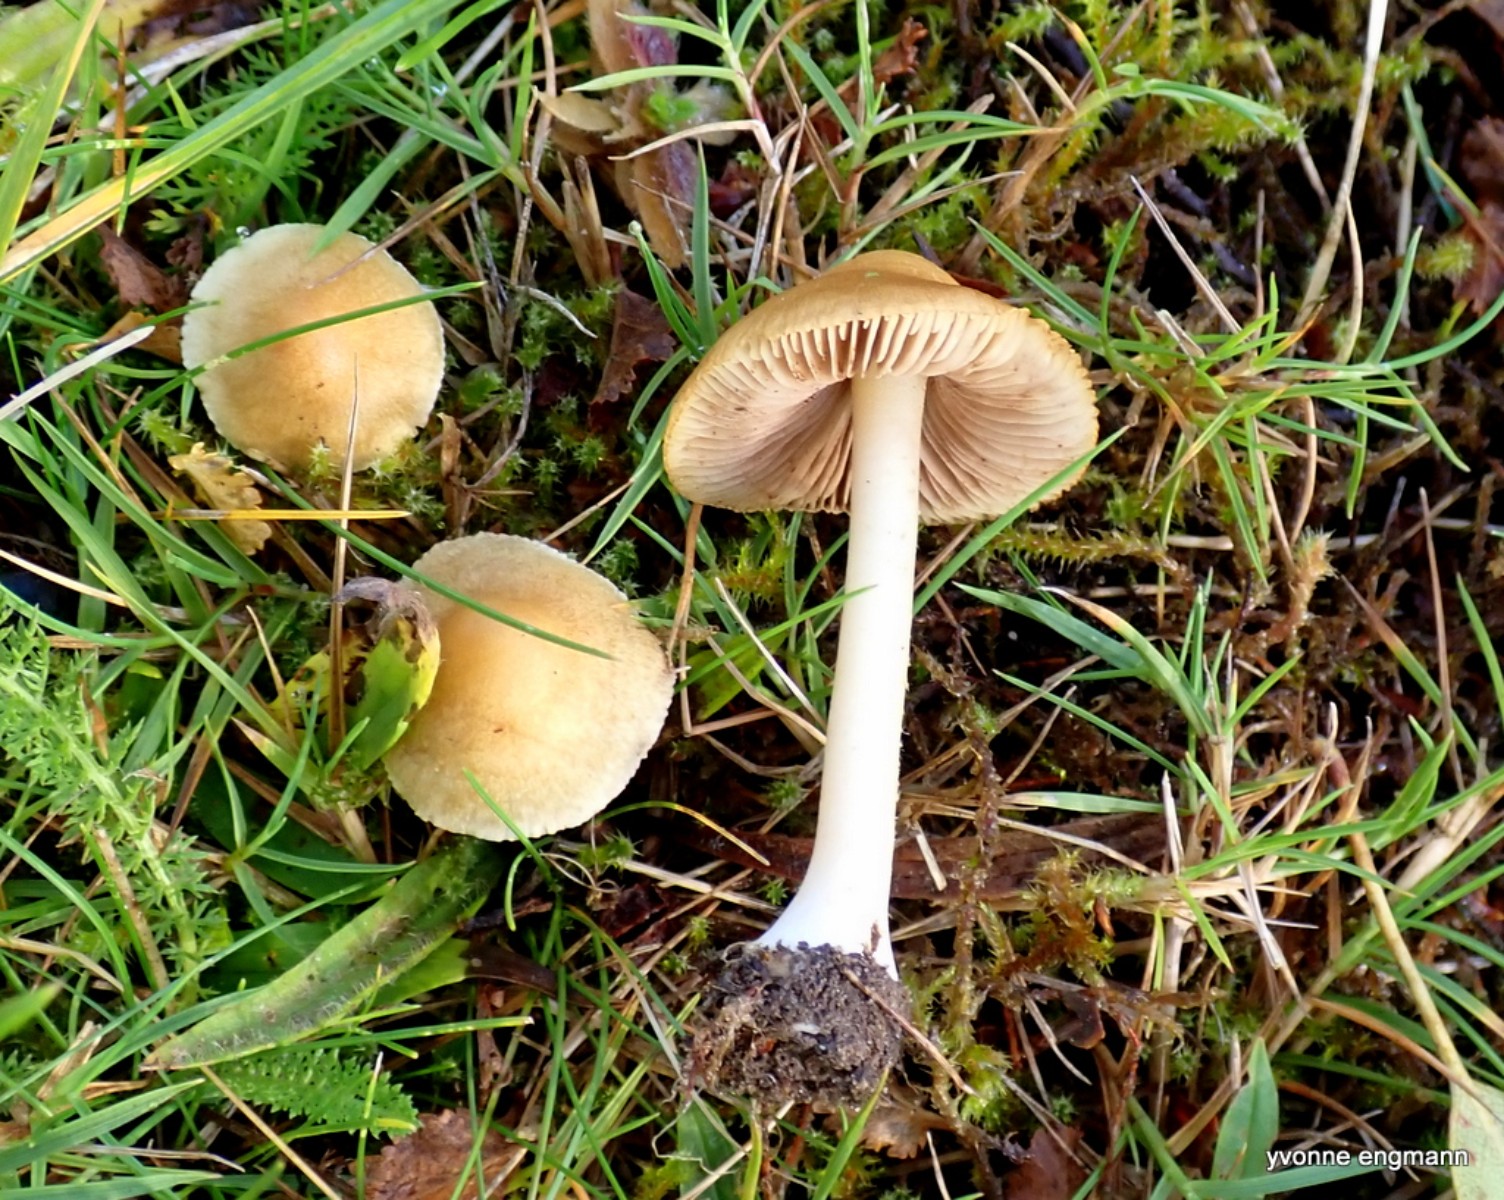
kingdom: Fungi
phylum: Basidiomycota
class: Agaricomycetes
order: Agaricales
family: Inocybaceae
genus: Inocybe
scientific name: Inocybe mixtilis
